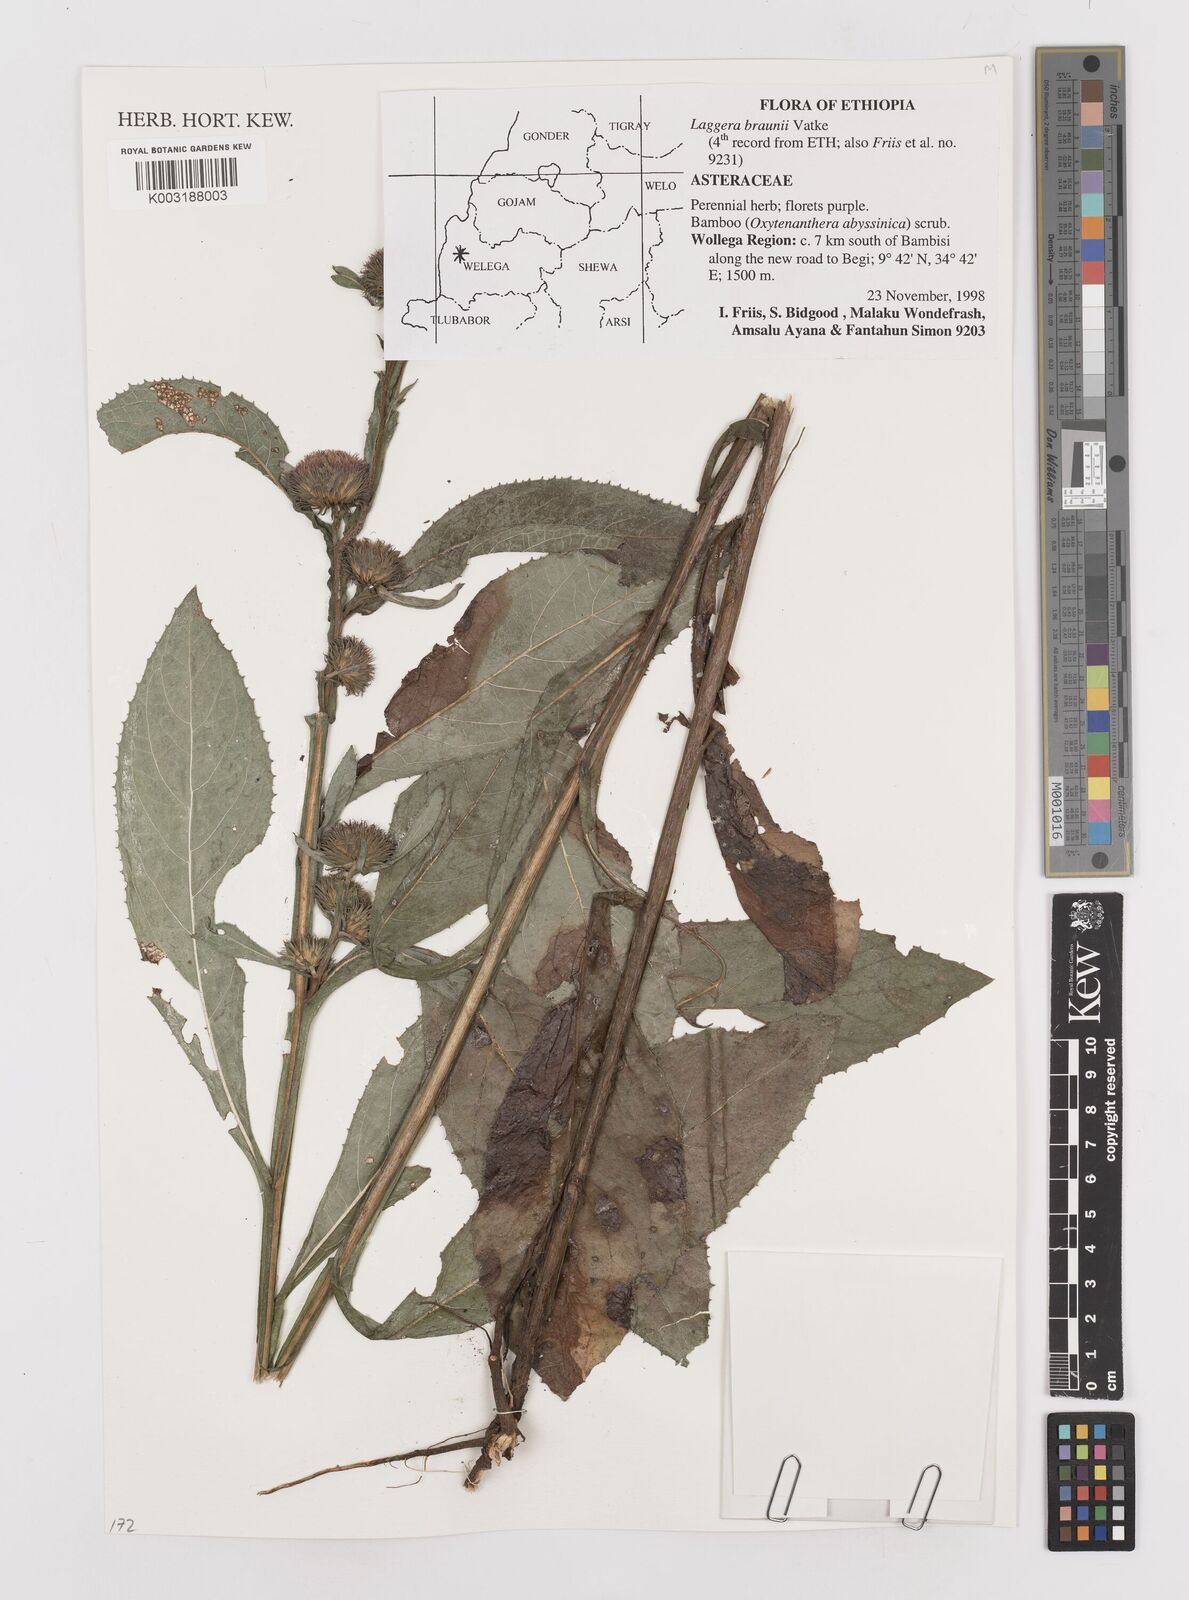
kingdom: Plantae
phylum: Tracheophyta
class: Magnoliopsida
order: Asterales
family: Asteraceae
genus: Laggera
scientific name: Laggera braunii
